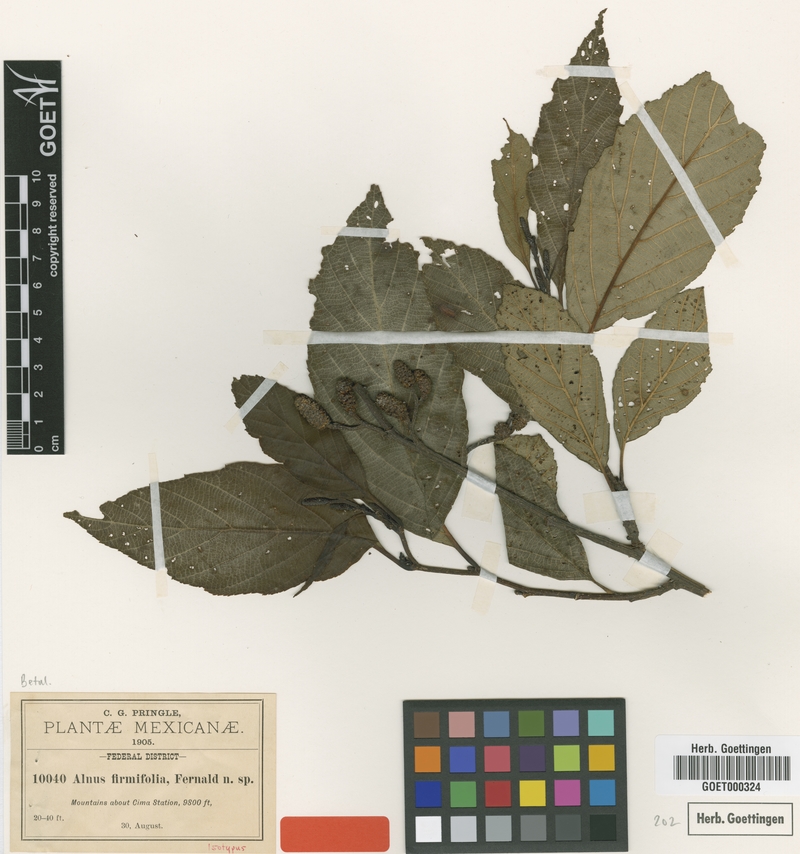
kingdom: Plantae
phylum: Tracheophyta
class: Magnoliopsida
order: Fagales
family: Betulaceae
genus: Alnus
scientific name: Alnus jorullensis
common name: Evergreen alder
